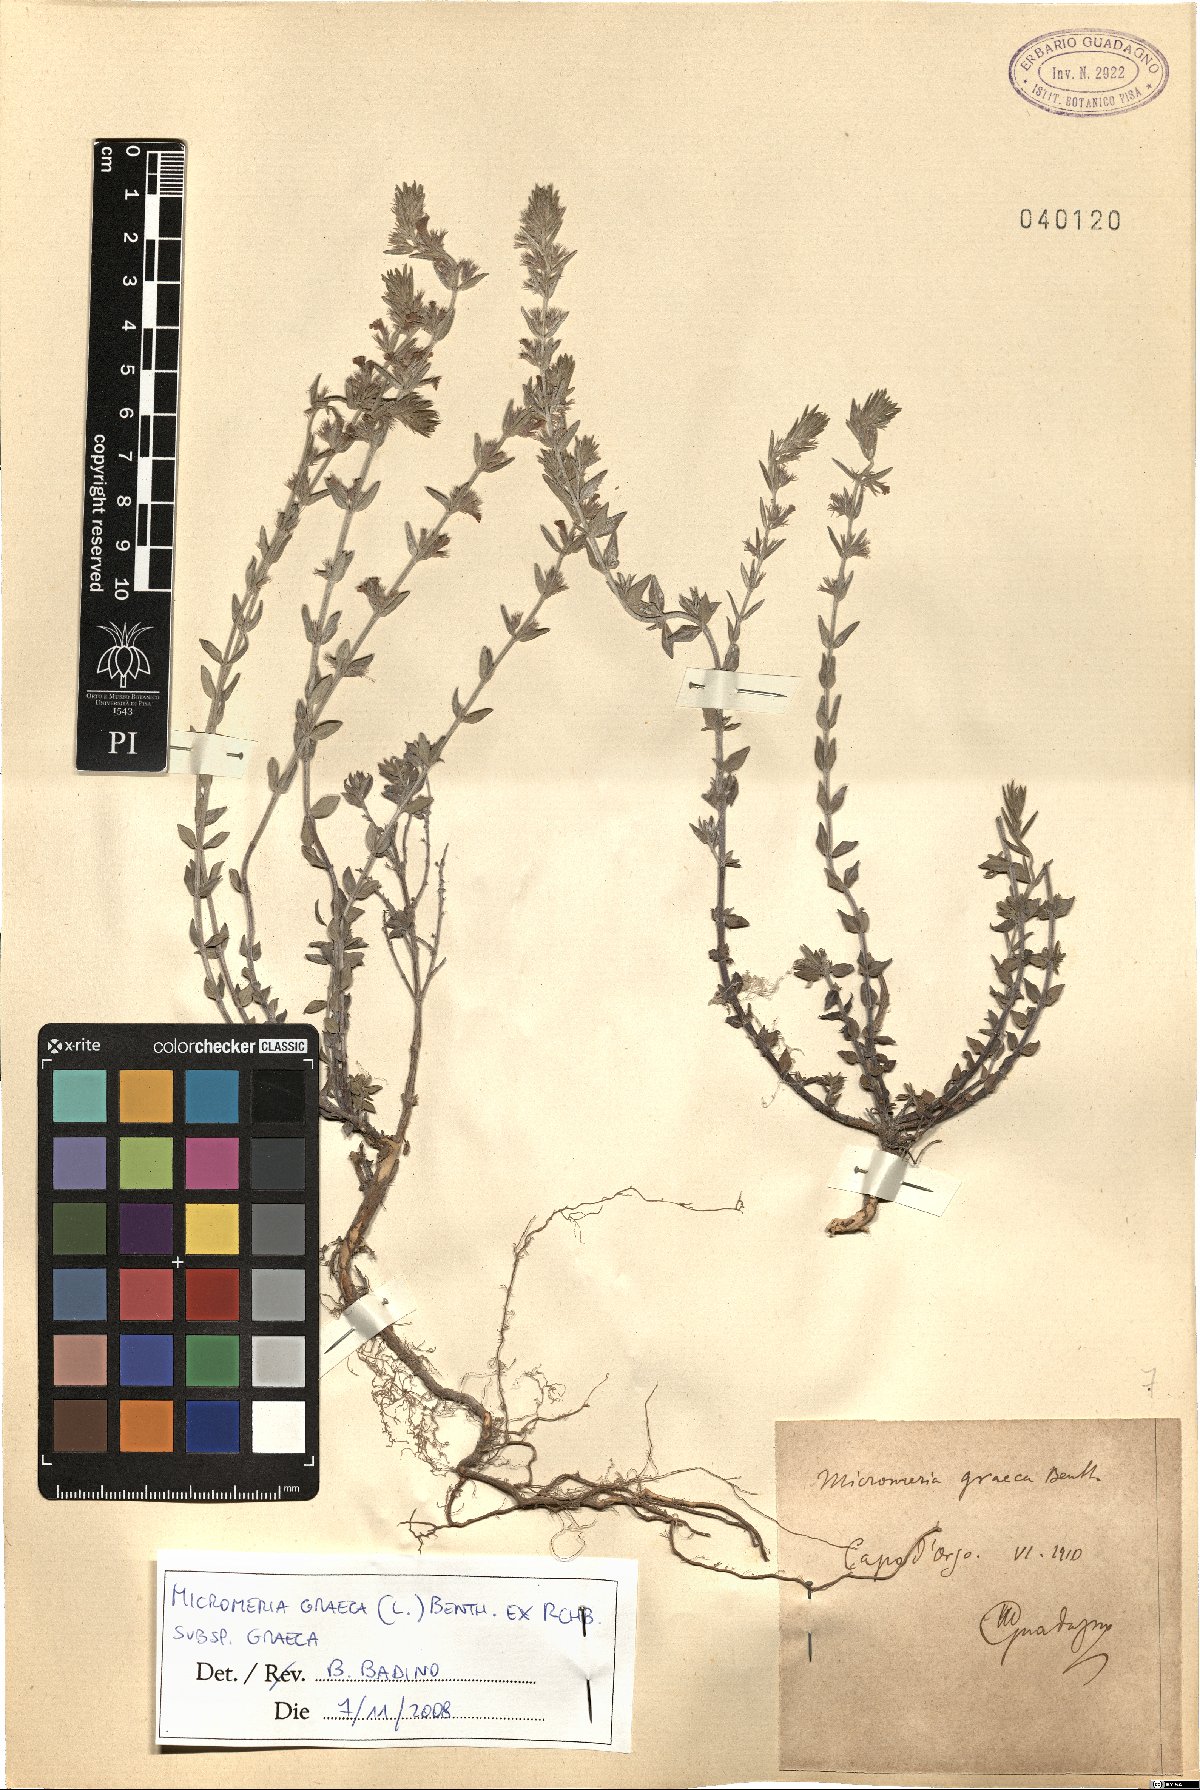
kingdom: Plantae
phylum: Tracheophyta
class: Magnoliopsida
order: Lamiales
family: Lamiaceae
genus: Micromeria
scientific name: Micromeria graeca
